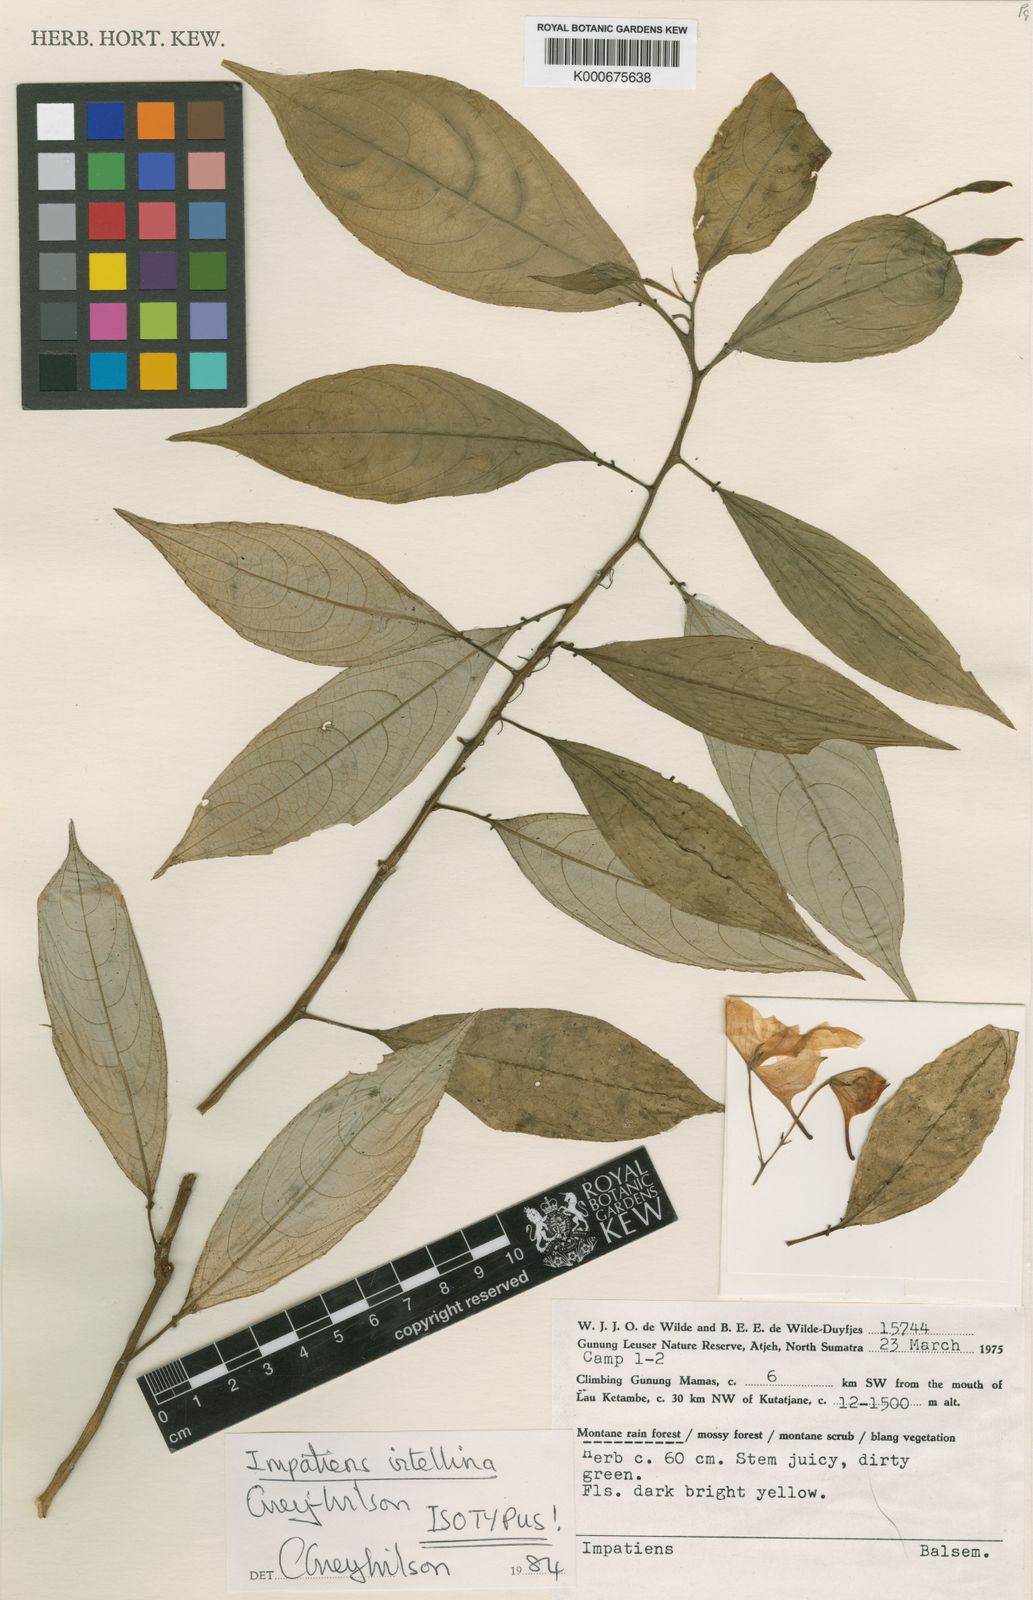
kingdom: Plantae
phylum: Tracheophyta
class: Magnoliopsida
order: Ericales
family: Balsaminaceae
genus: Impatiens
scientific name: Impatiens vitellina
